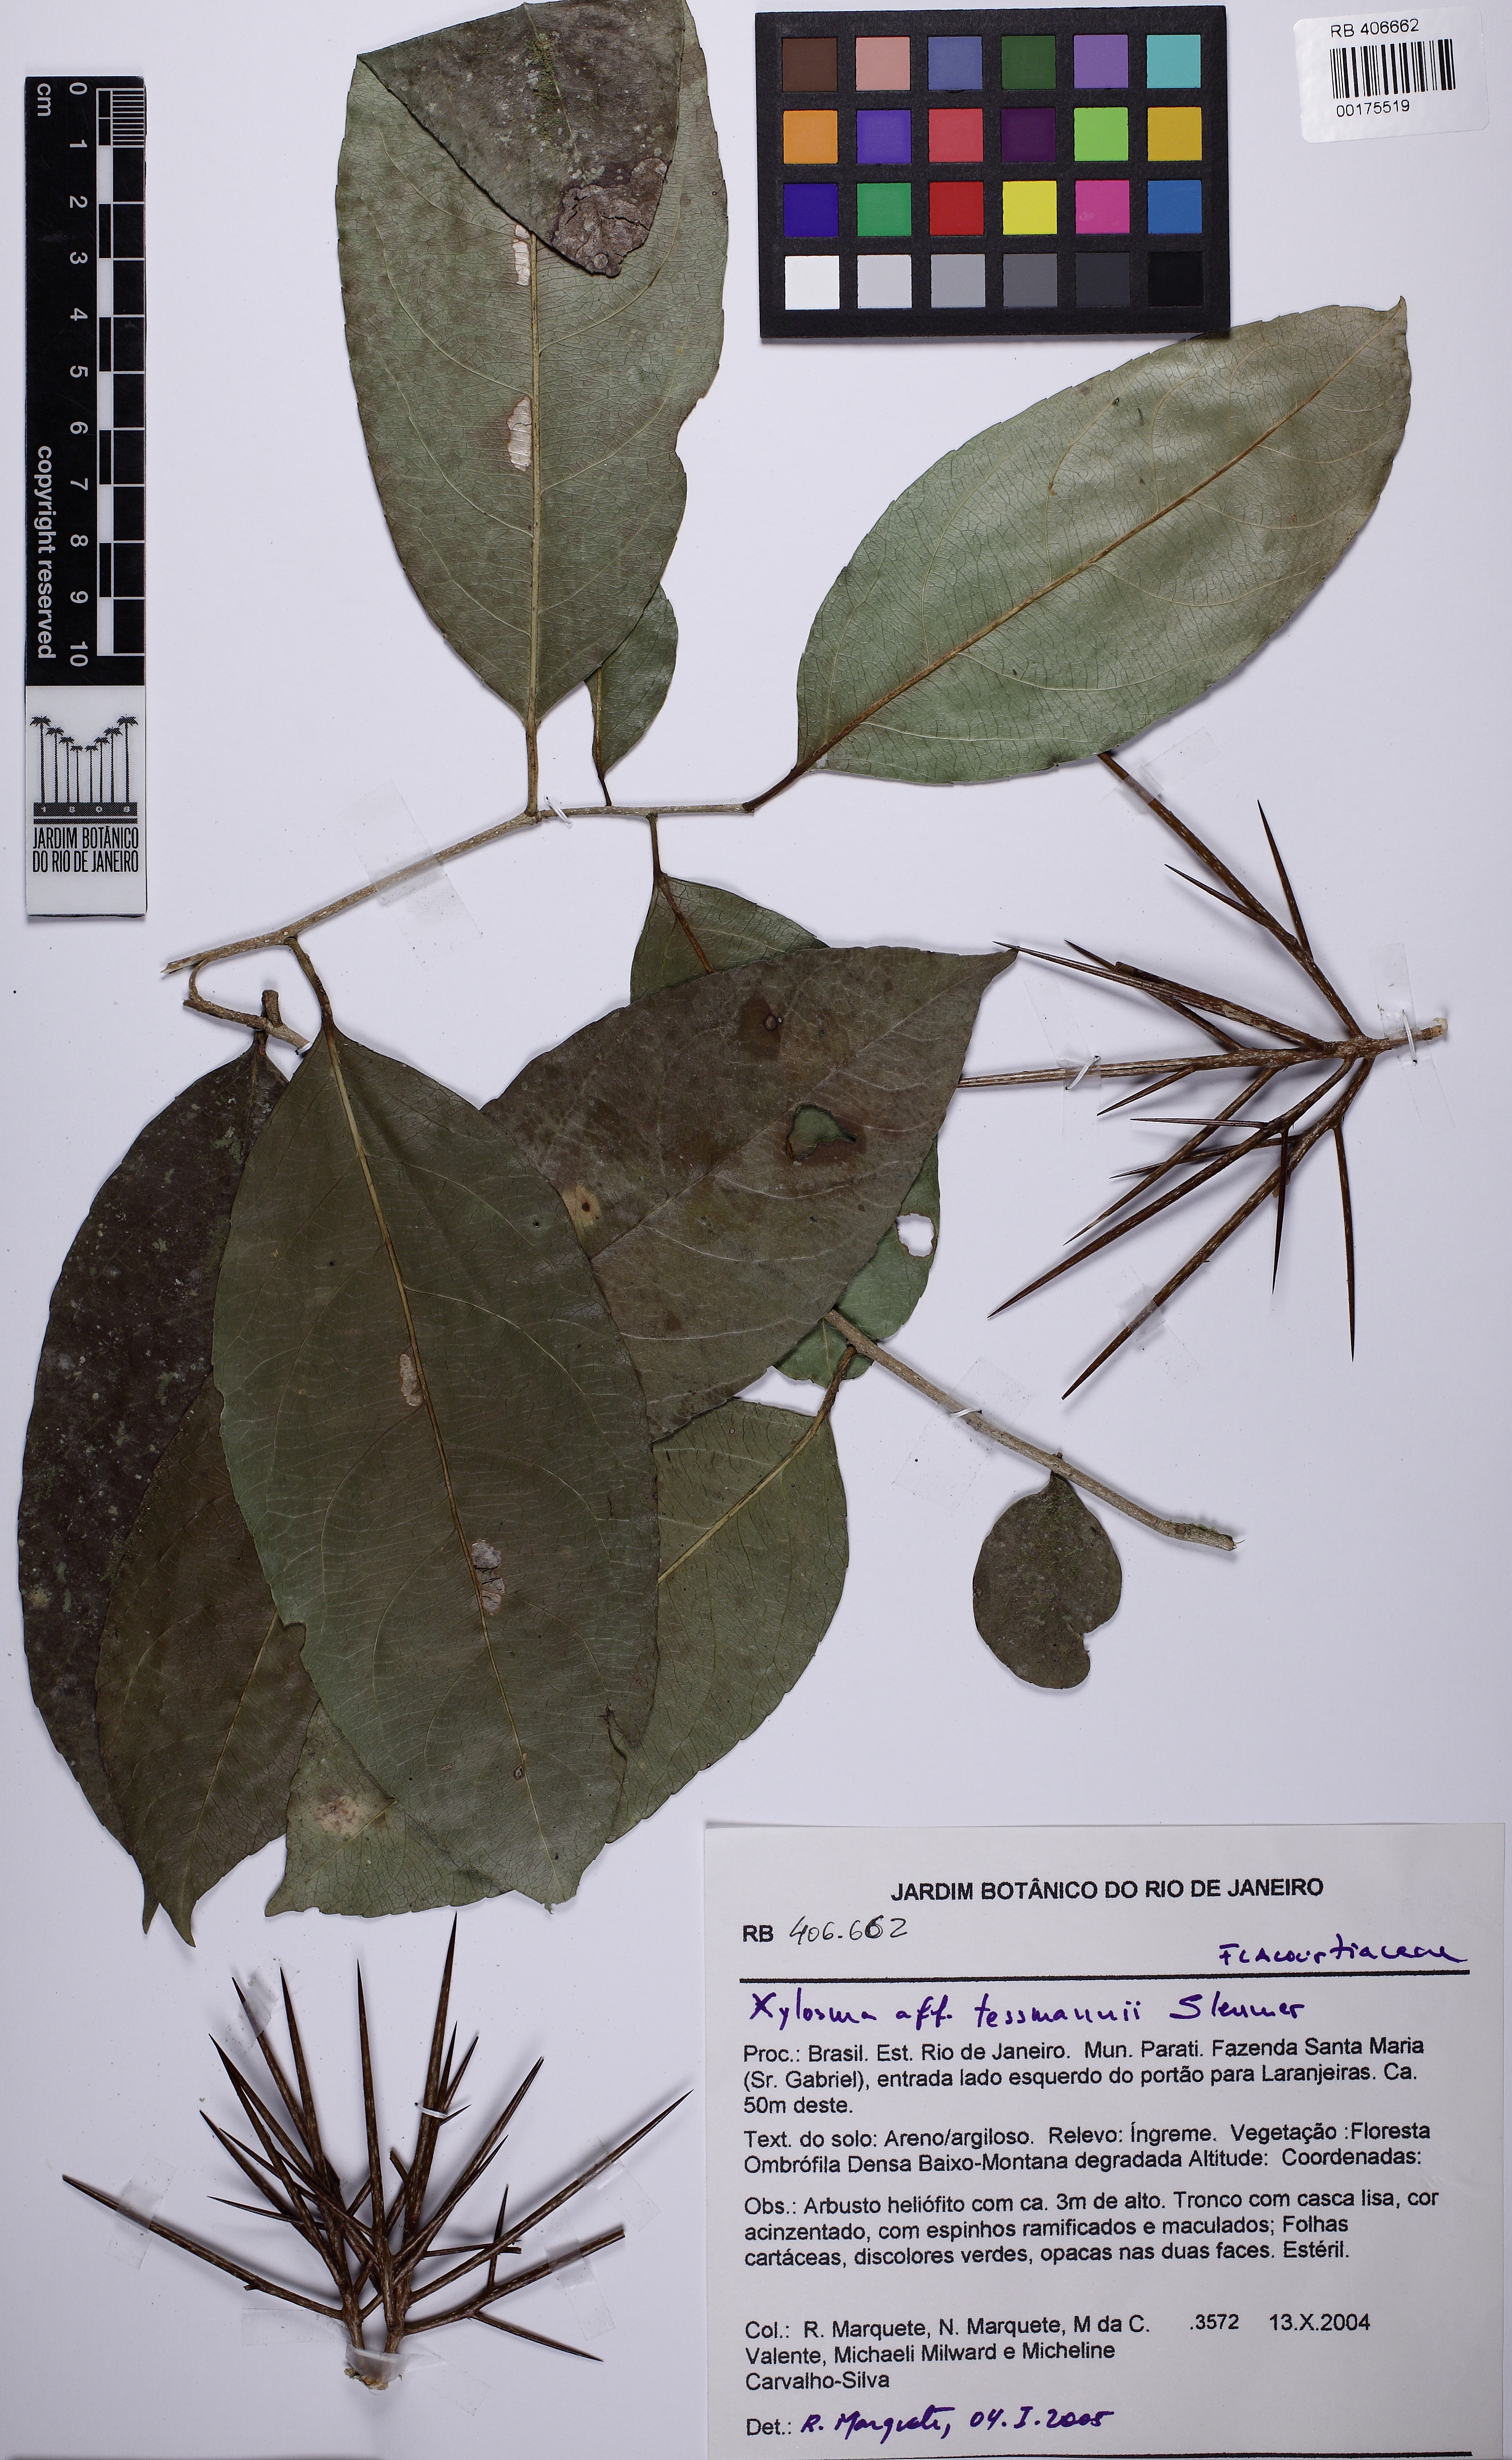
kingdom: Plantae
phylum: Tracheophyta
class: Magnoliopsida
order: Malpighiales
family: Salicaceae
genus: Xylosma
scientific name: Xylosma tessmannii
